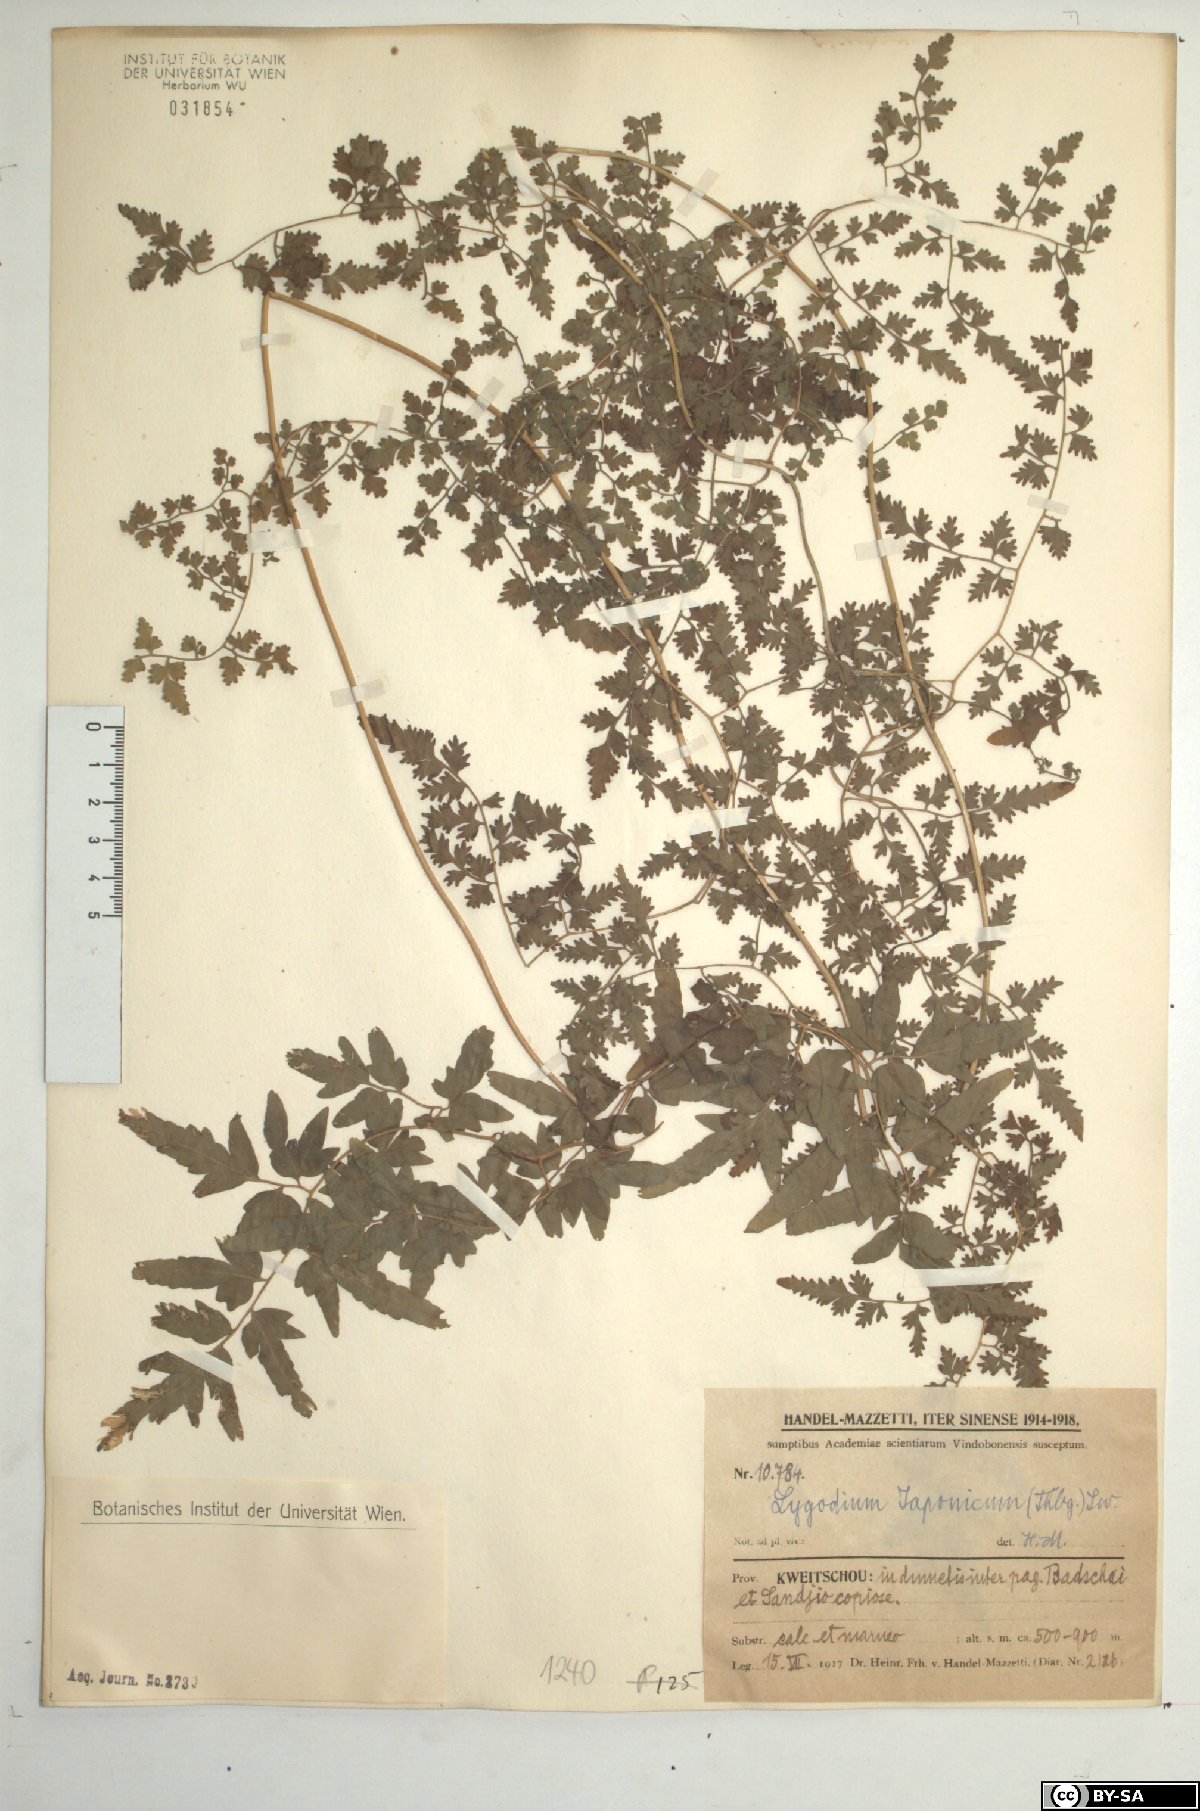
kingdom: Plantae
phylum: Tracheophyta
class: Polypodiopsida
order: Schizaeales
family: Lygodiaceae
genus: Lygodium
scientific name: Lygodium japonicum
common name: Japanese climbing fern
